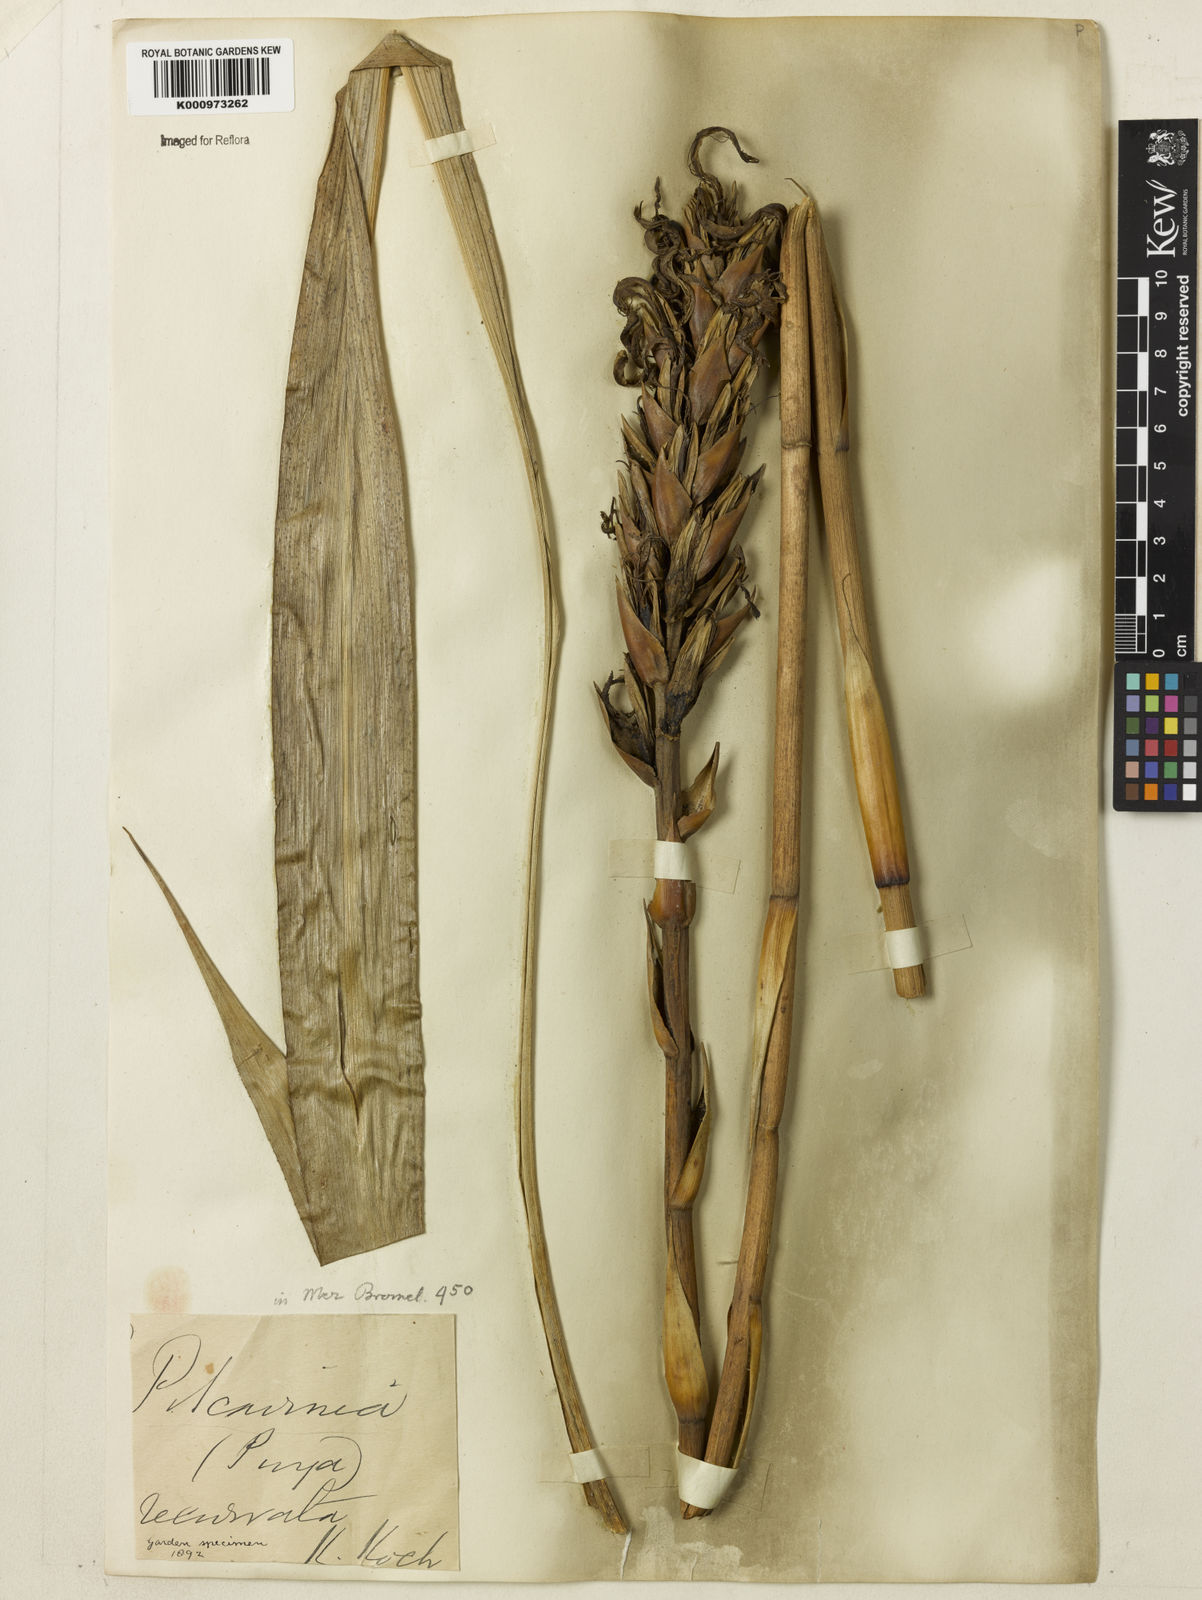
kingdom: Plantae
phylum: Tracheophyta
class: Liliopsida
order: Poales
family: Bromeliaceae
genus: Pitcairnia
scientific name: Pitcairnia recurvata
